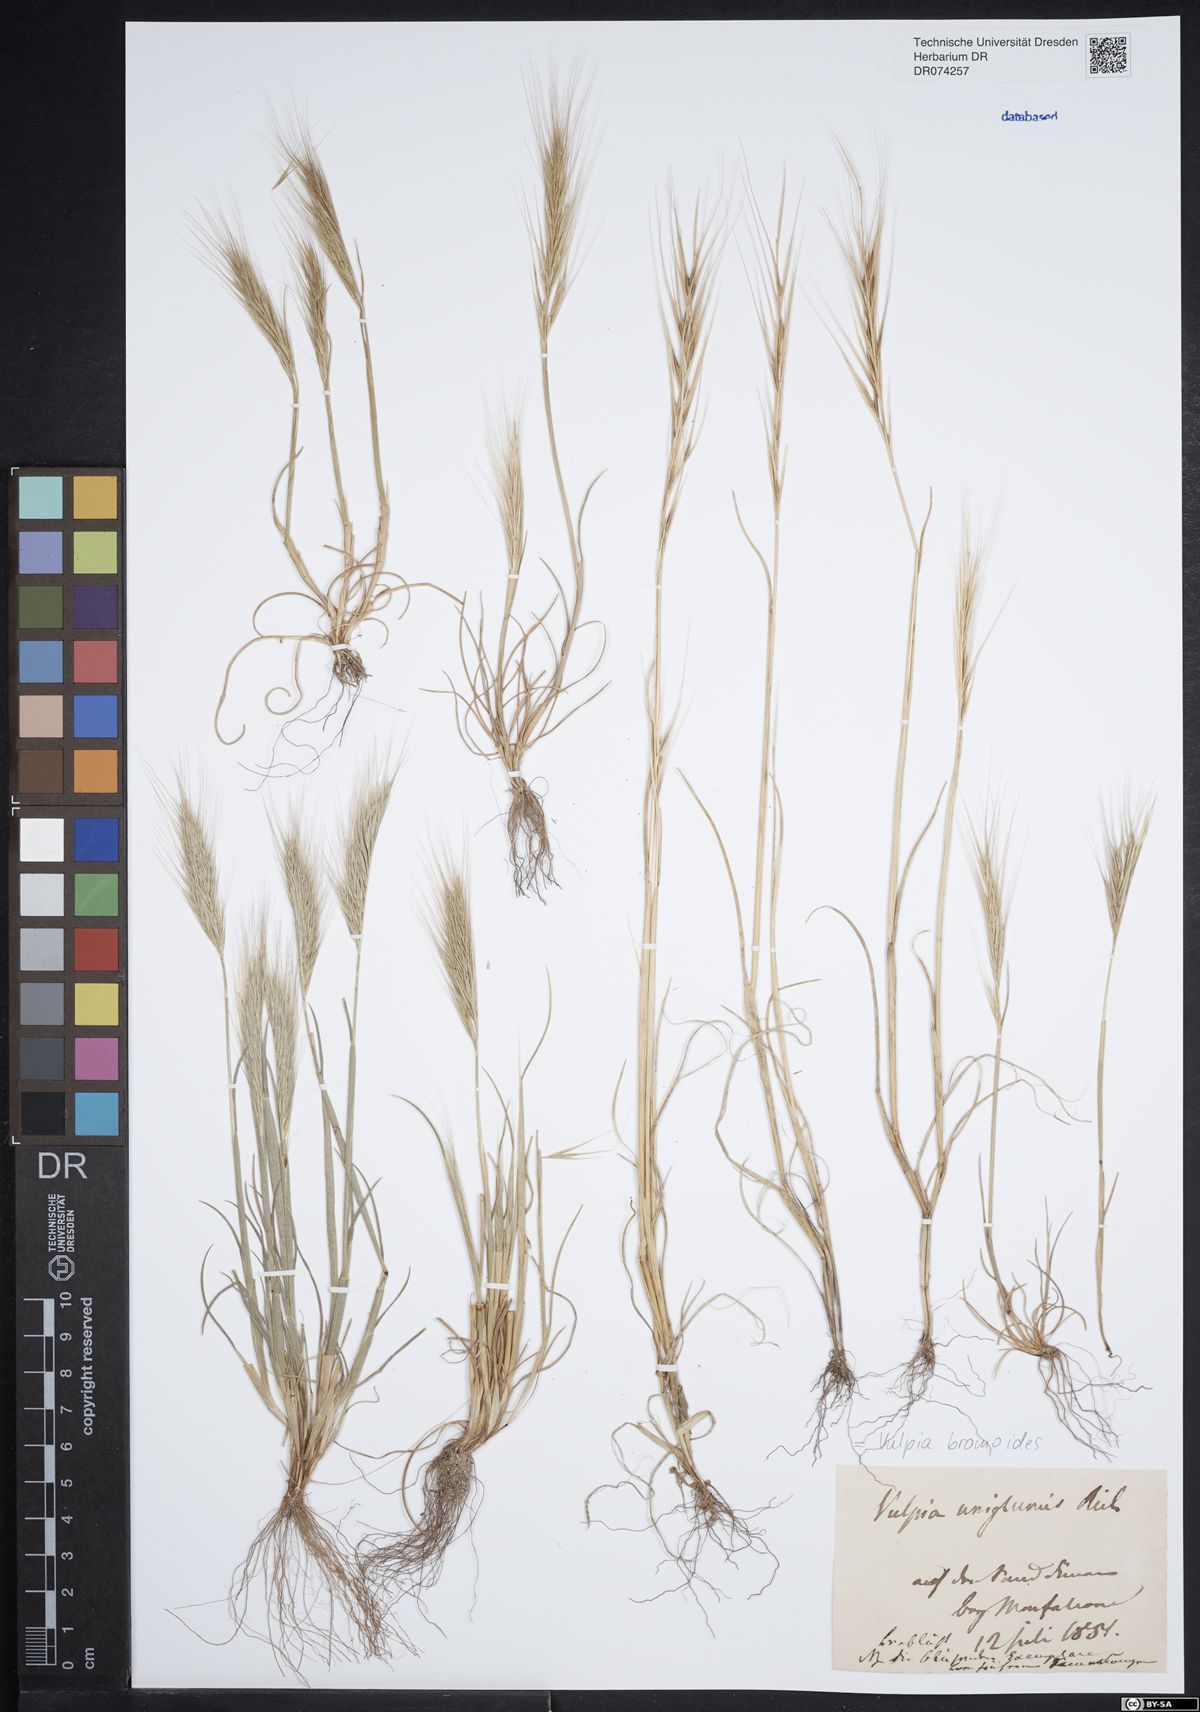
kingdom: Plantae
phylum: Tracheophyta
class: Liliopsida
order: Poales
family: Poaceae
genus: Festuca
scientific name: Festuca bromoides
